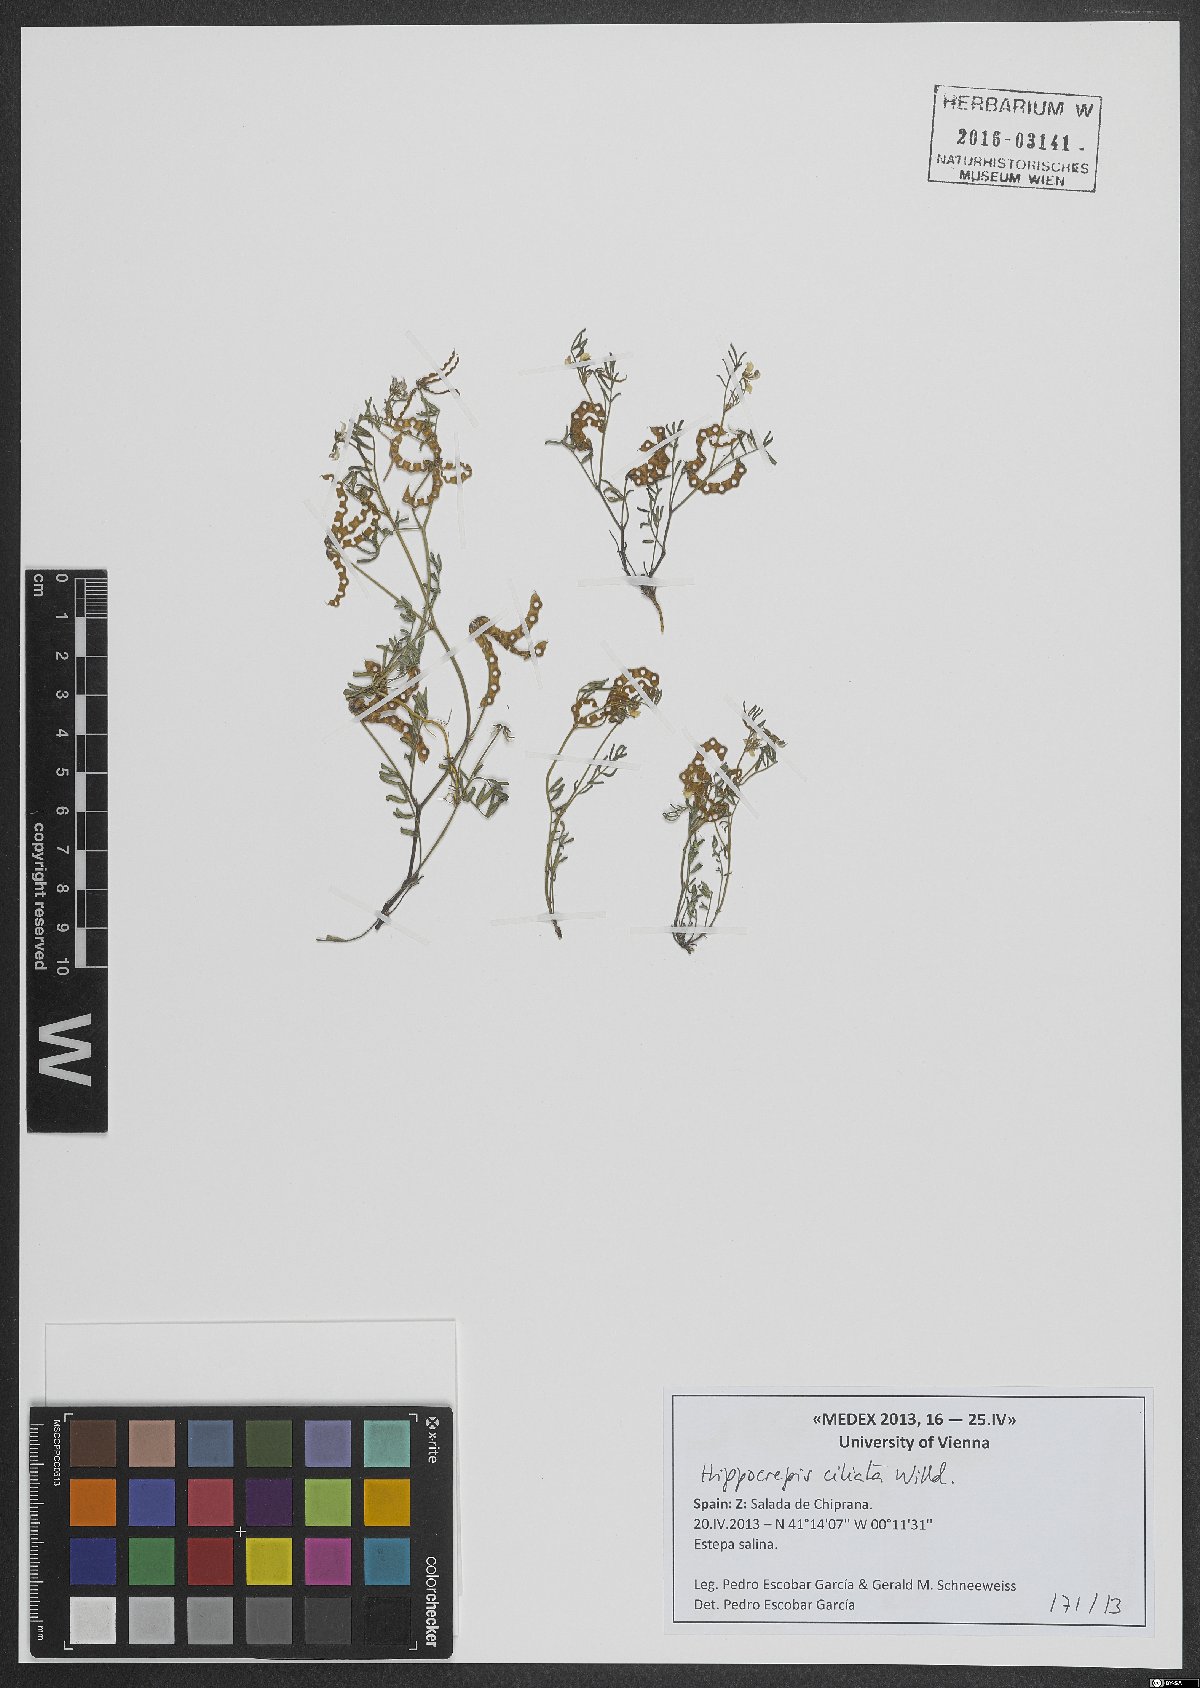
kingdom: Plantae
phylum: Tracheophyta
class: Magnoliopsida
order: Fabales
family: Fabaceae
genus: Hippocrepis
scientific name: Hippocrepis ciliata
